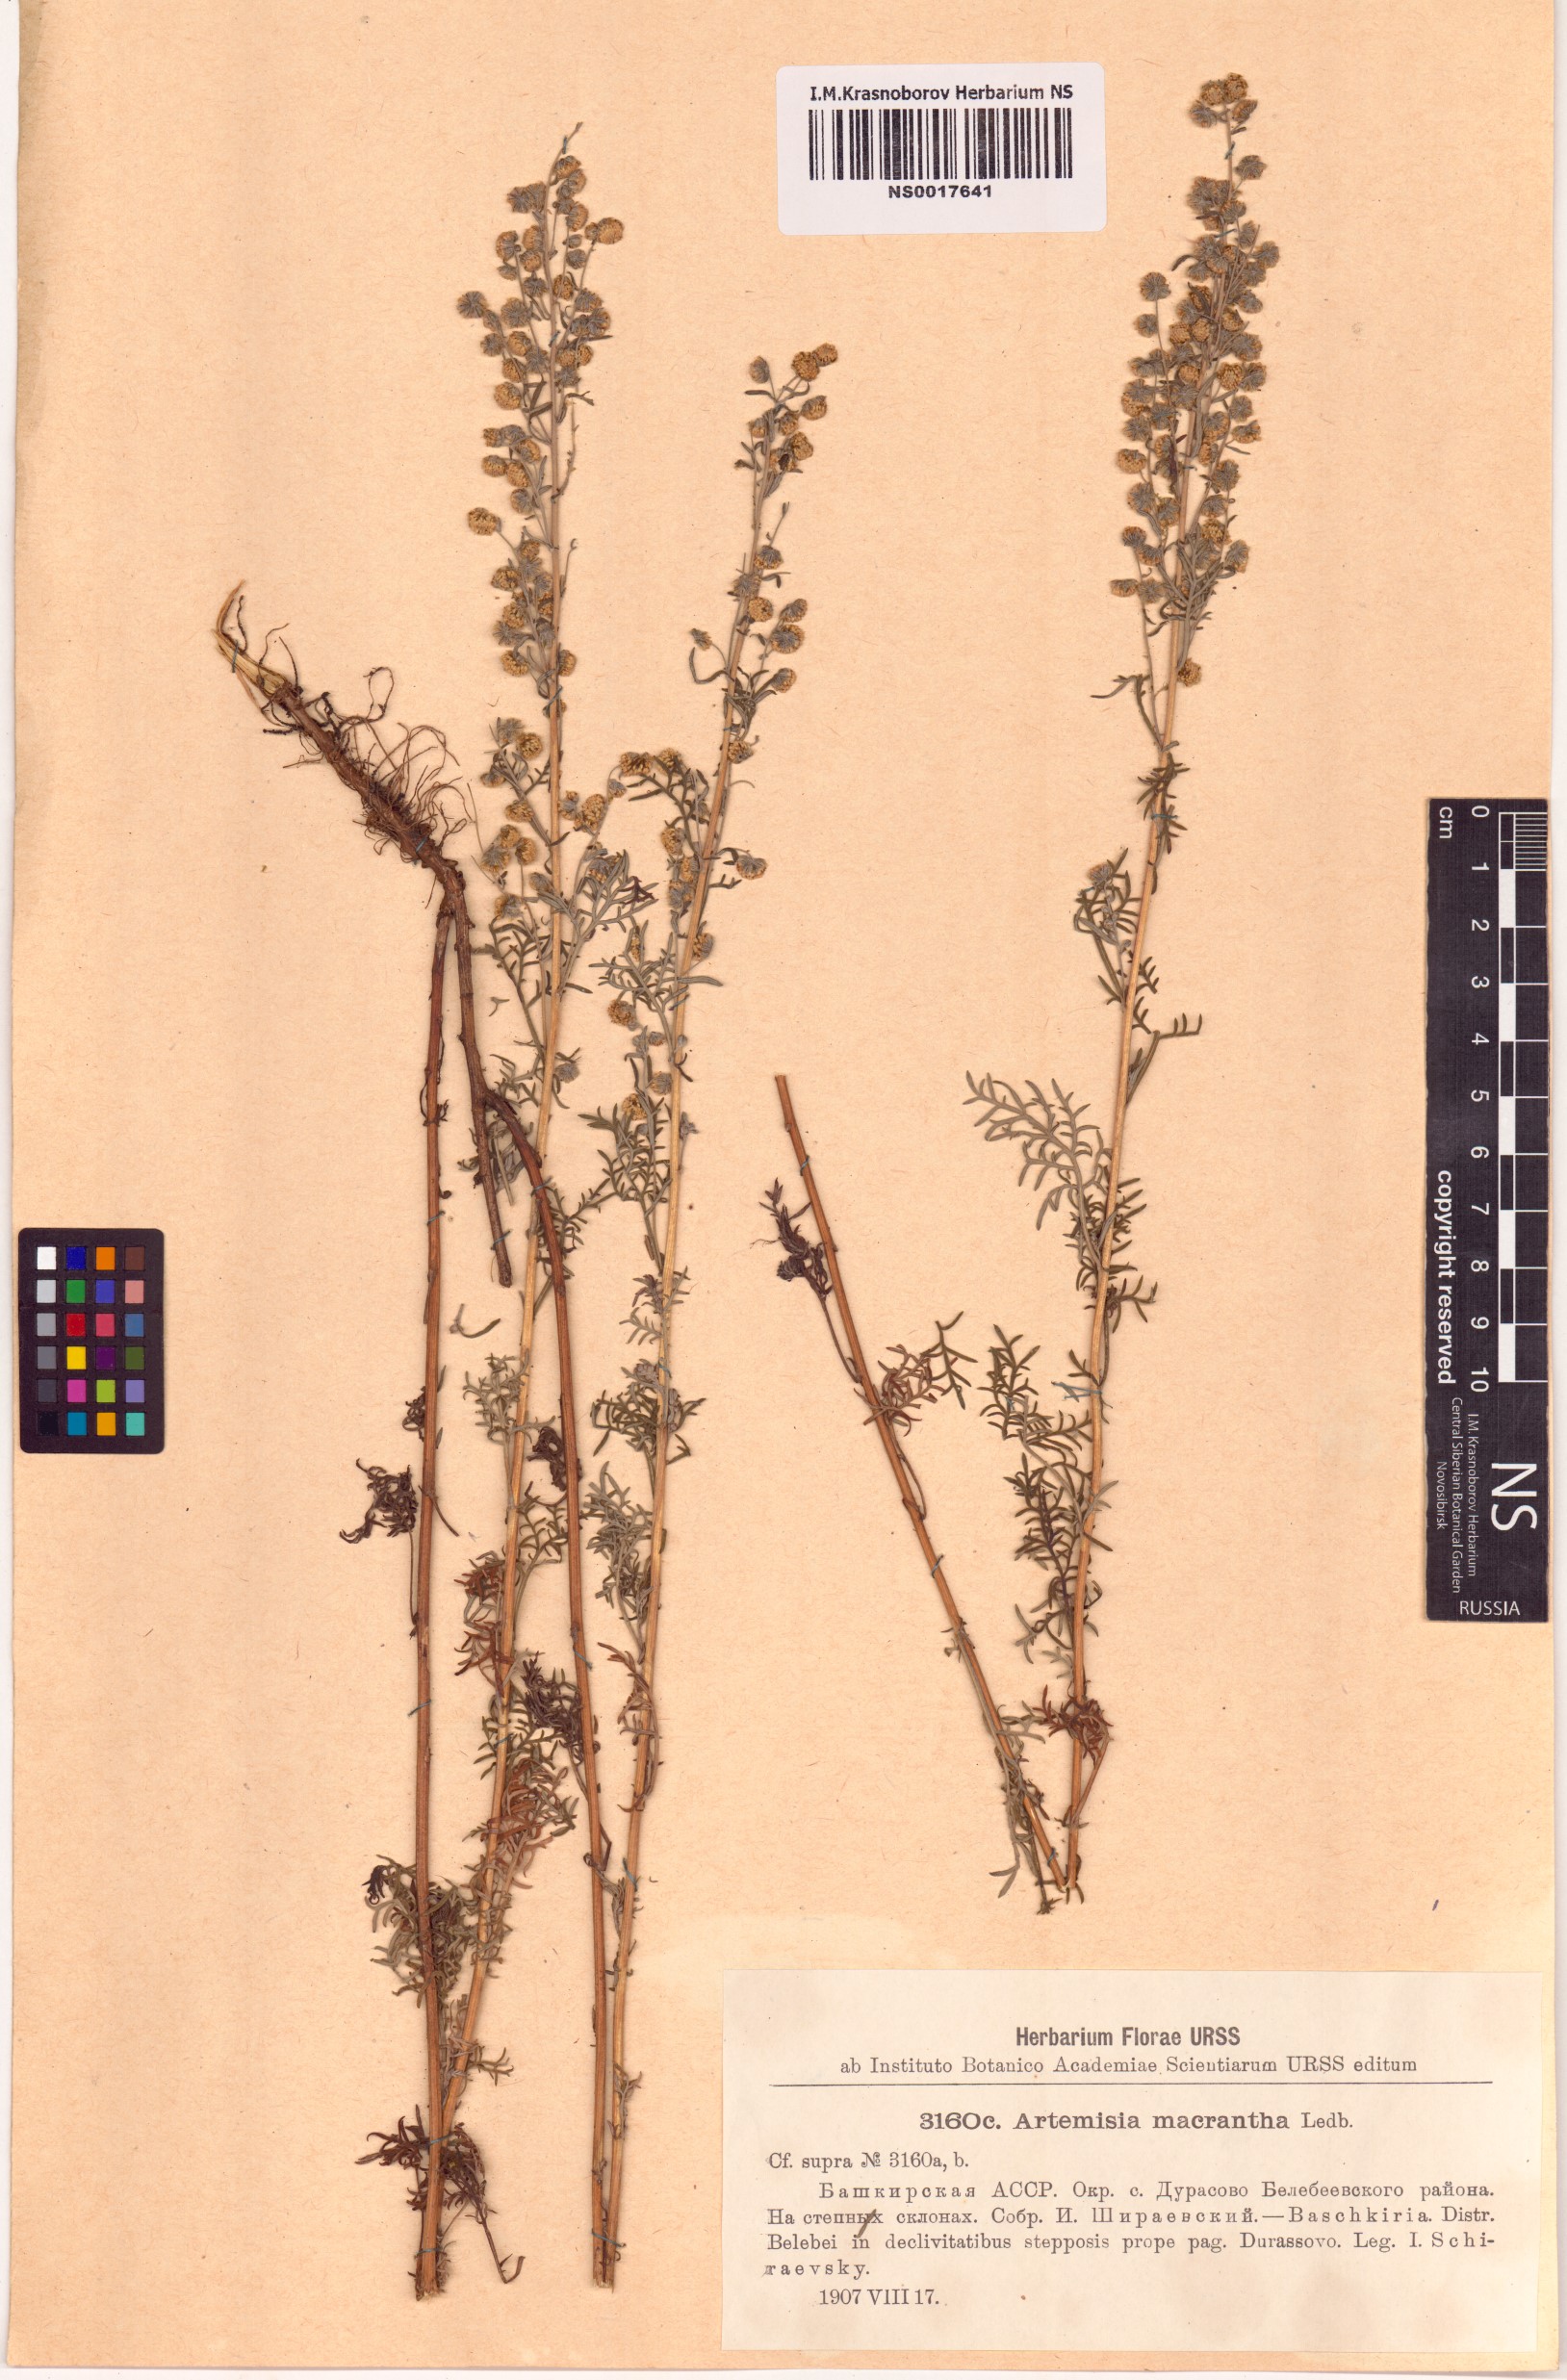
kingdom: Plantae
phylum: Tracheophyta
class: Magnoliopsida
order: Asterales
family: Asteraceae
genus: Artemisia
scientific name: Artemisia macrantha
